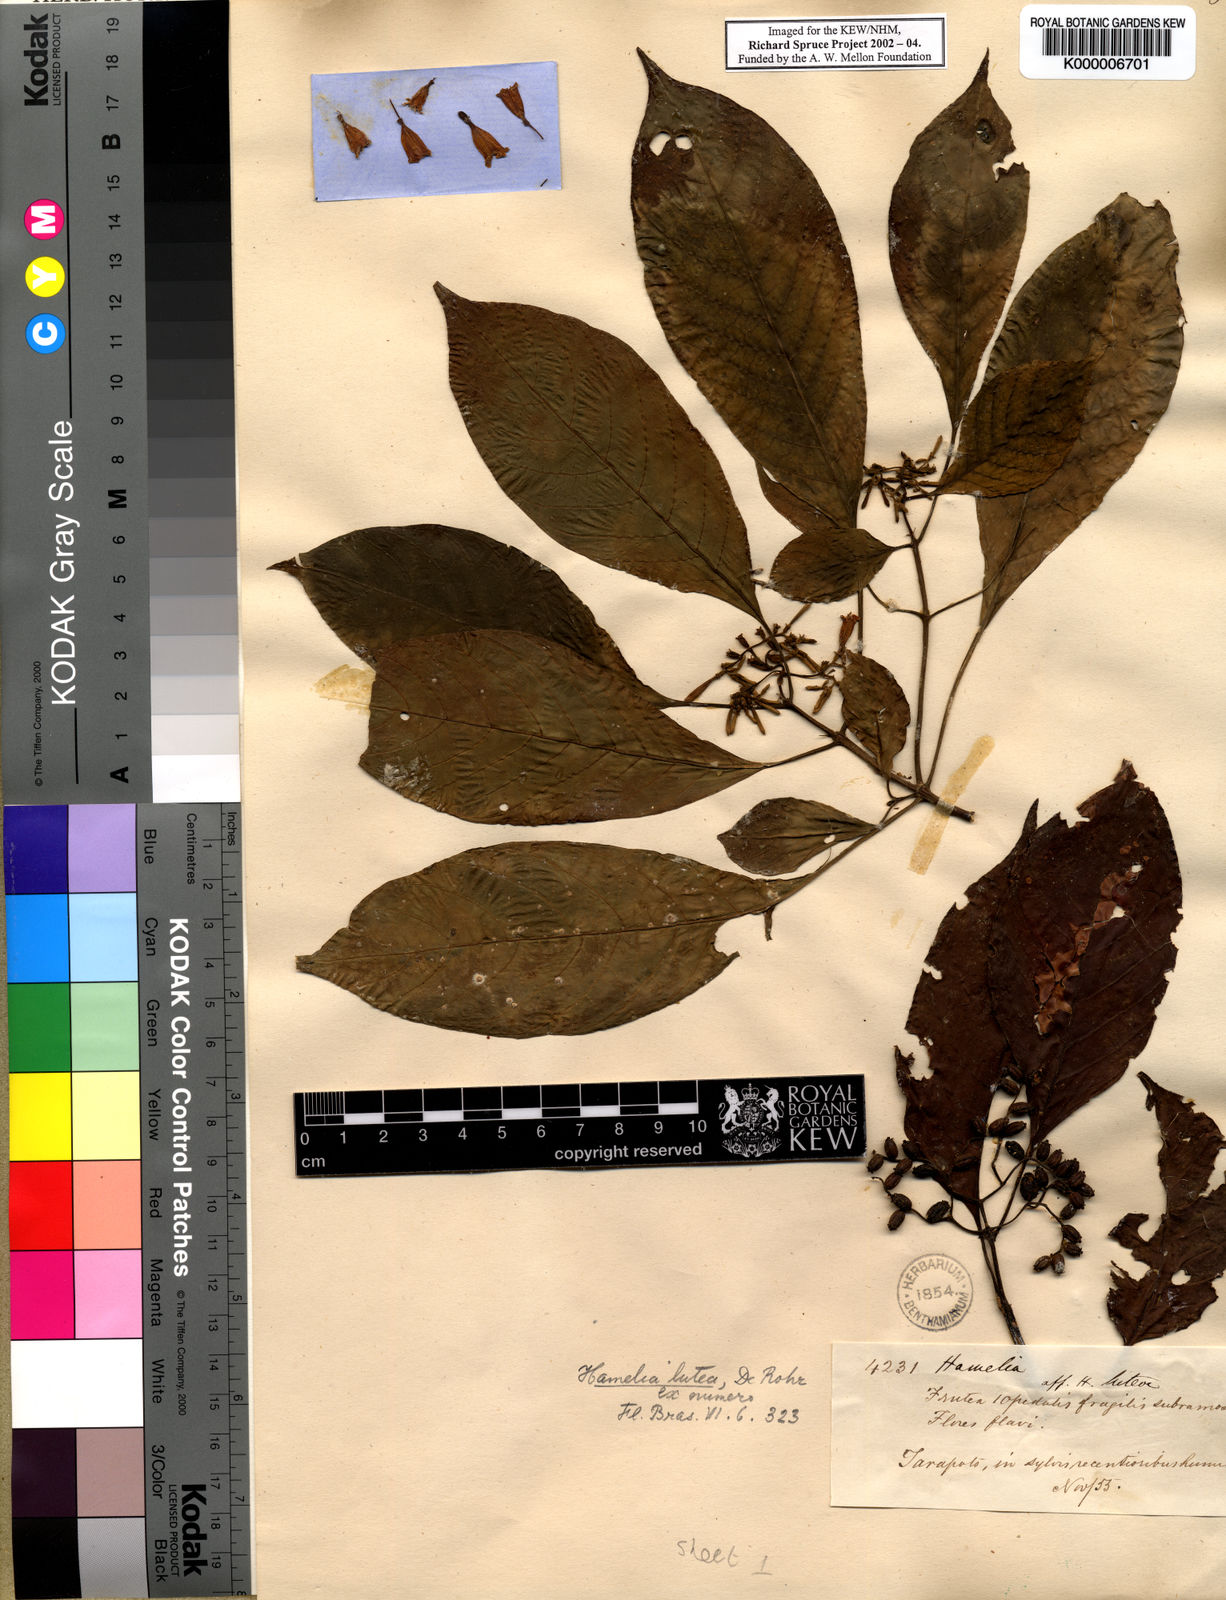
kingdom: Plantae
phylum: Tracheophyta
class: Magnoliopsida
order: Gentianales
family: Rubiaceae
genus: Hamelia
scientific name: Hamelia axillaris
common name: Balsamillo
